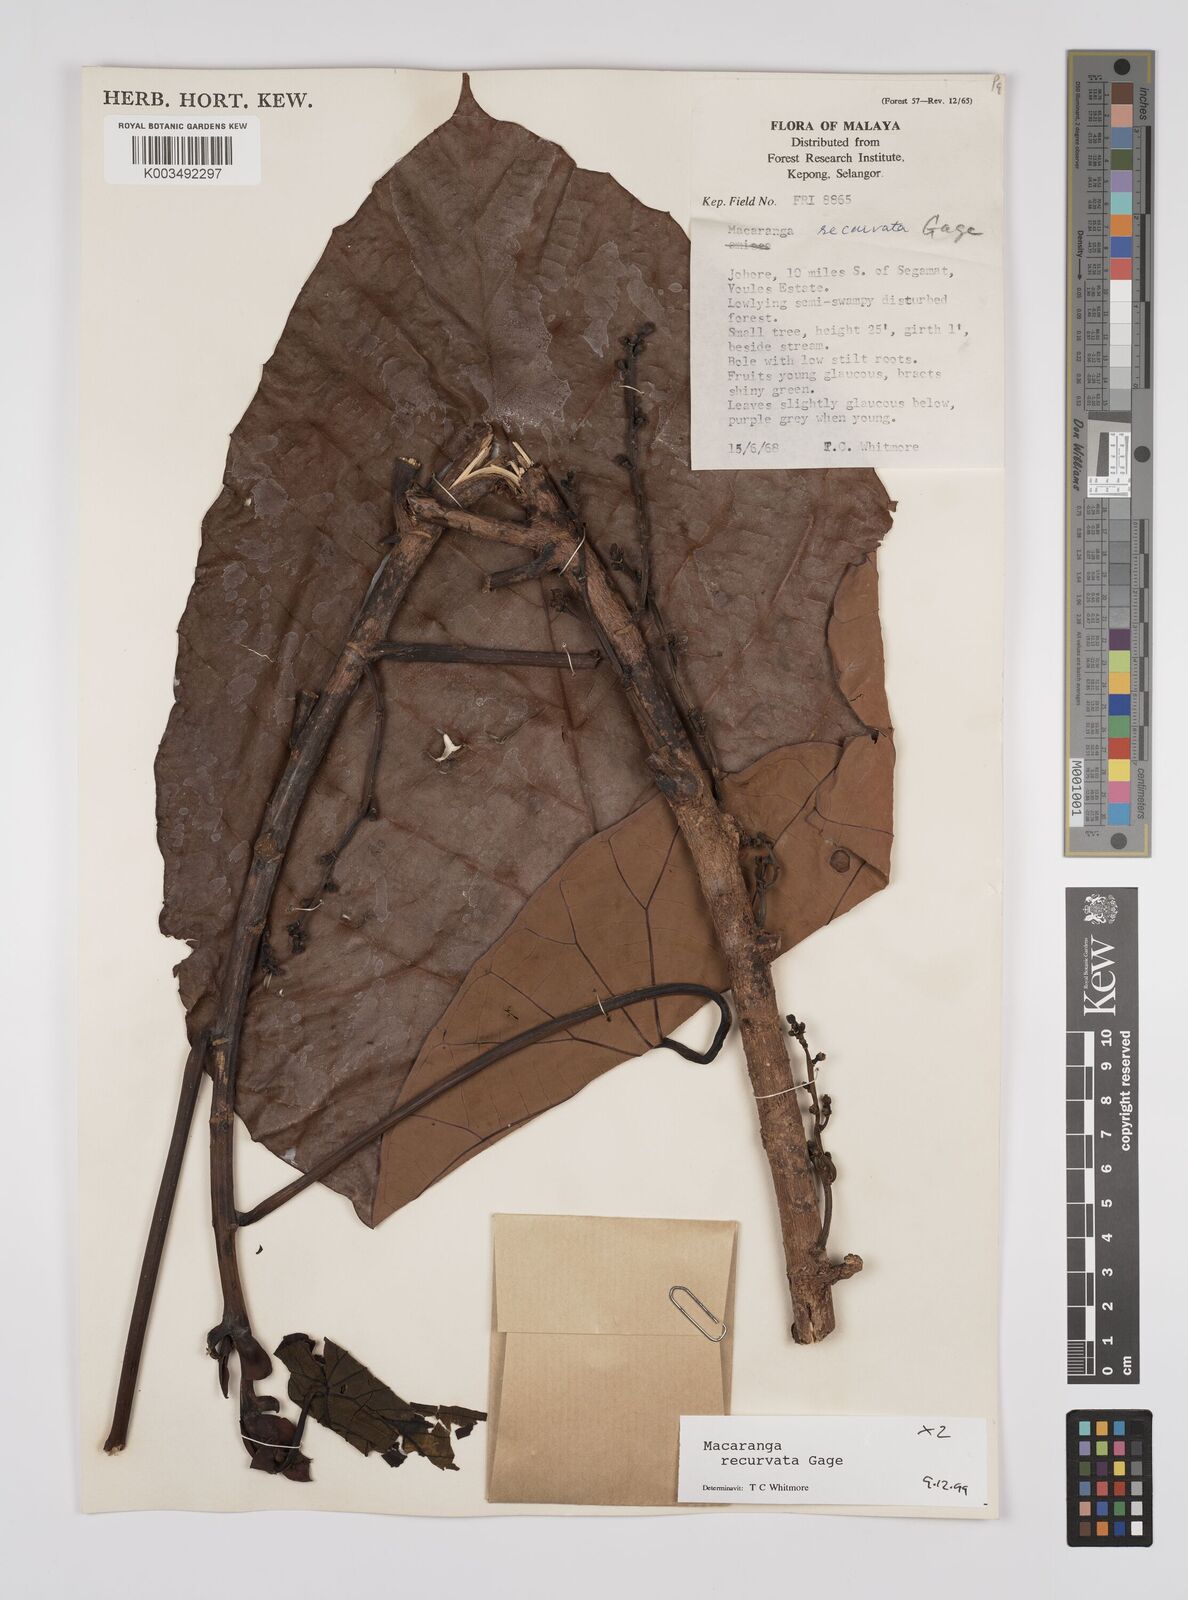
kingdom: Plantae
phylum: Tracheophyta
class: Magnoliopsida
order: Malpighiales
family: Euphorbiaceae
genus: Macaranga
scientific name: Macaranga recurvata
